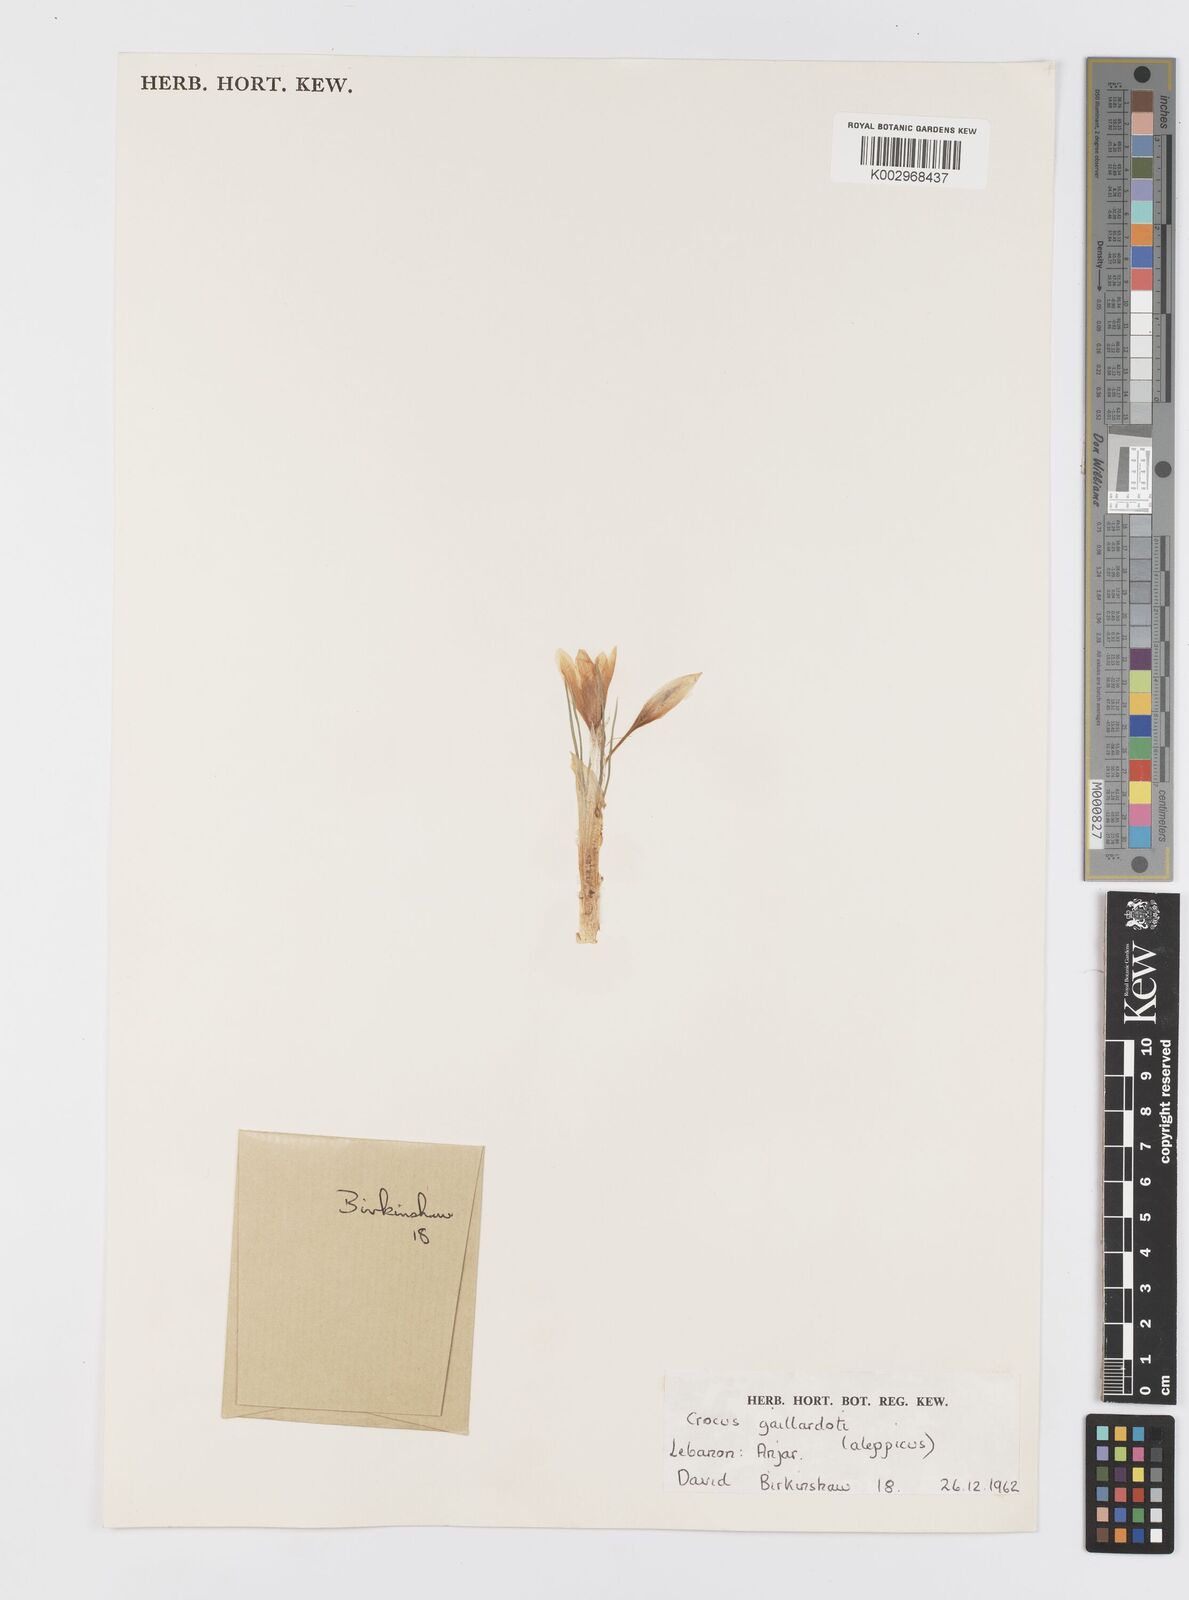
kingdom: Plantae
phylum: Tracheophyta
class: Liliopsida
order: Asparagales
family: Iridaceae
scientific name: Iridaceae
